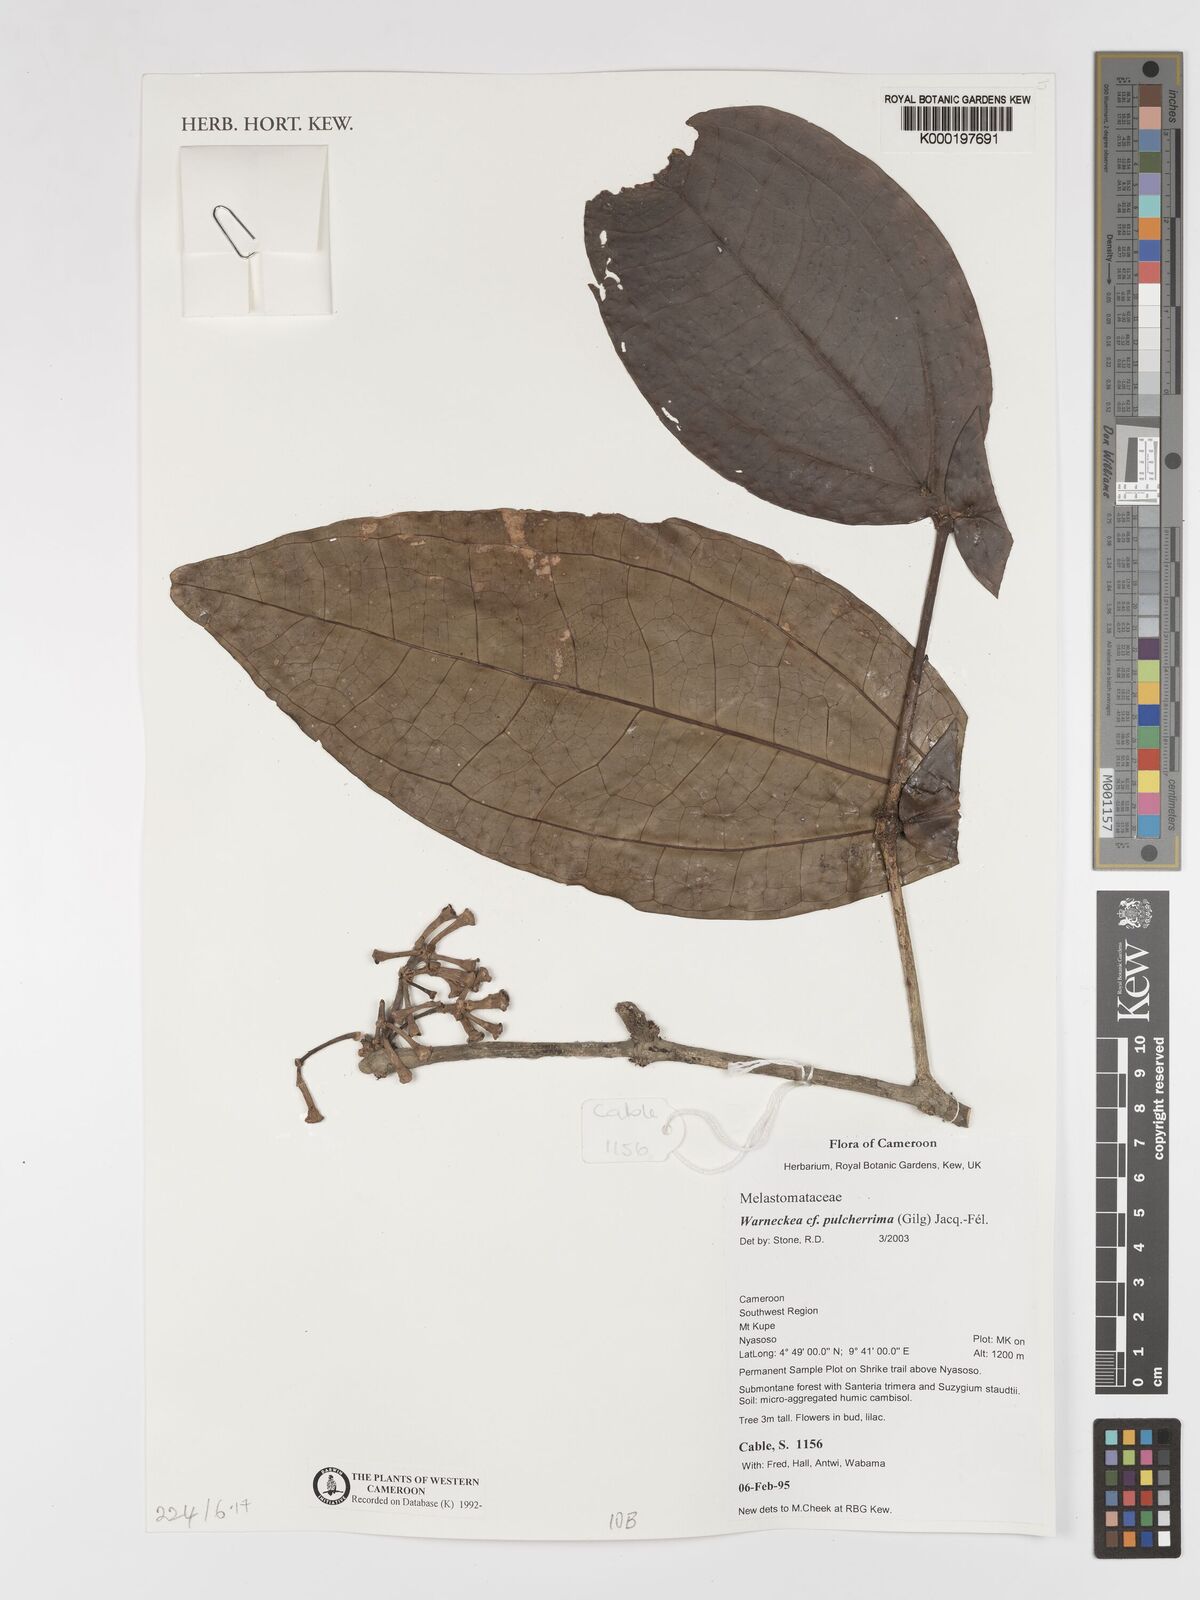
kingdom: Plantae
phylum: Tracheophyta
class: Magnoliopsida
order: Myrtales
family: Melastomataceae
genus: Warneckea
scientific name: Warneckea
